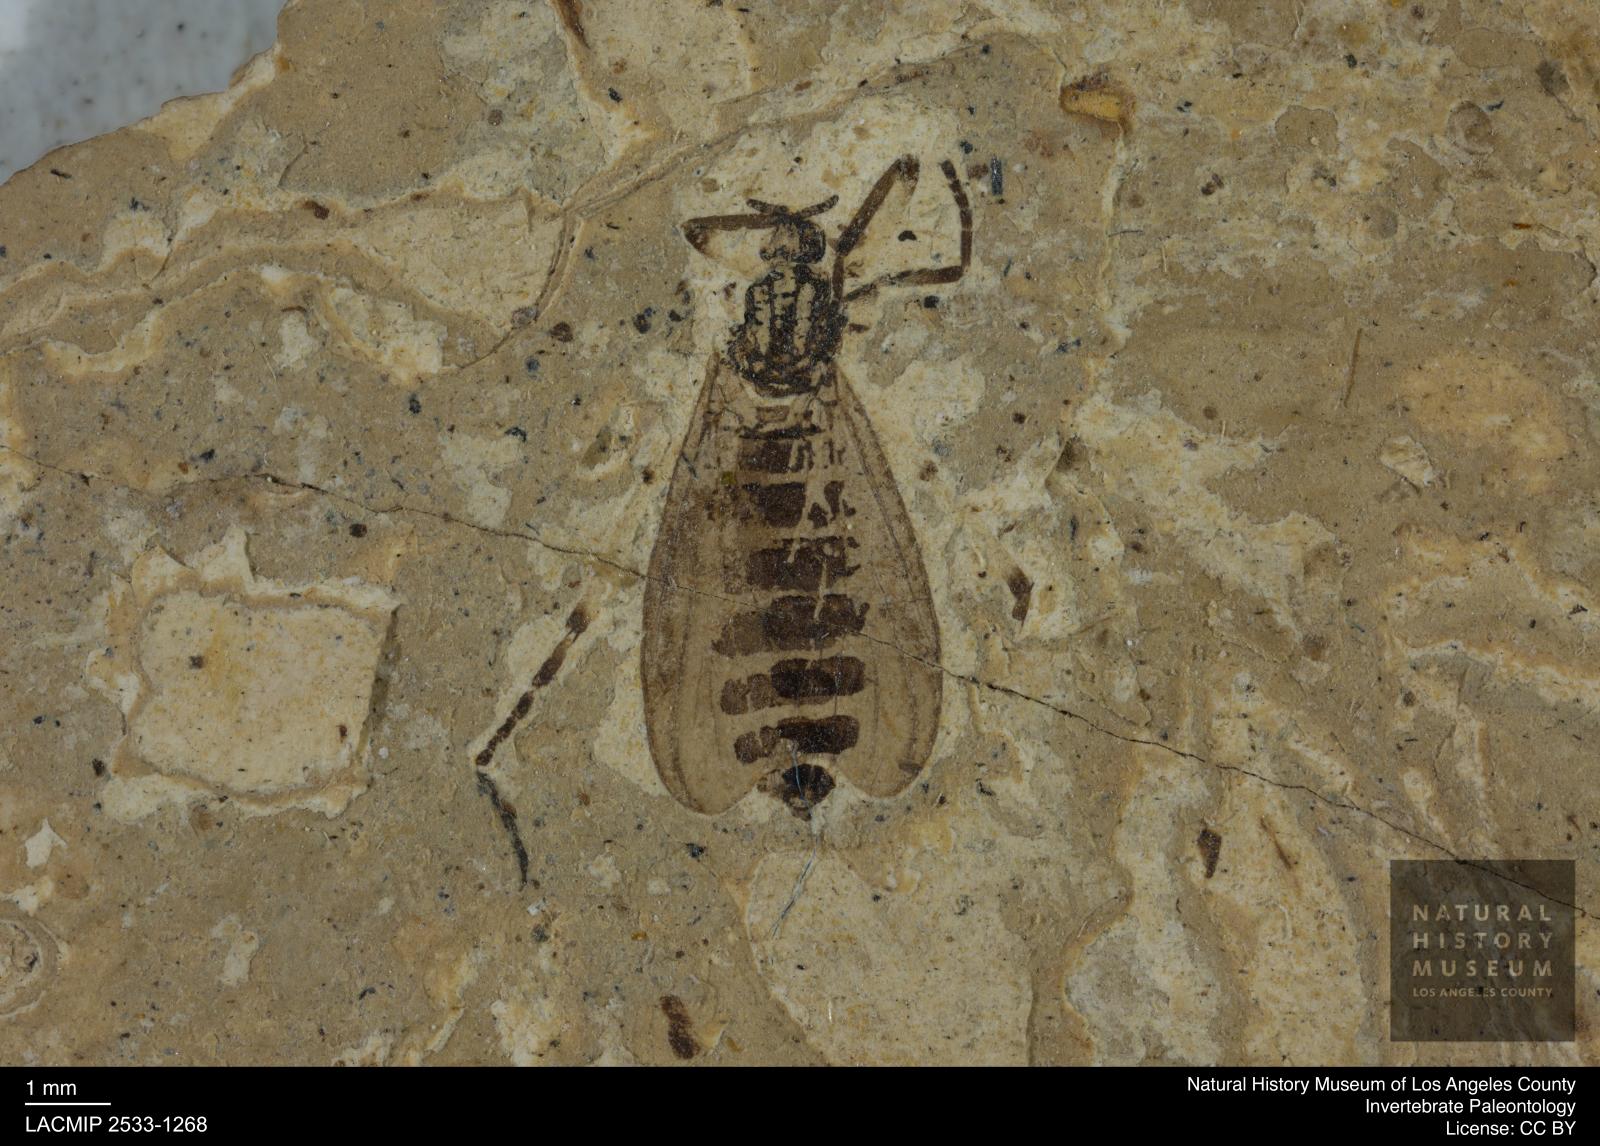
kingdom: Animalia
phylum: Arthropoda
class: Insecta
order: Diptera
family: Bibionidae
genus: Plecia
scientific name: Plecia pinguis
